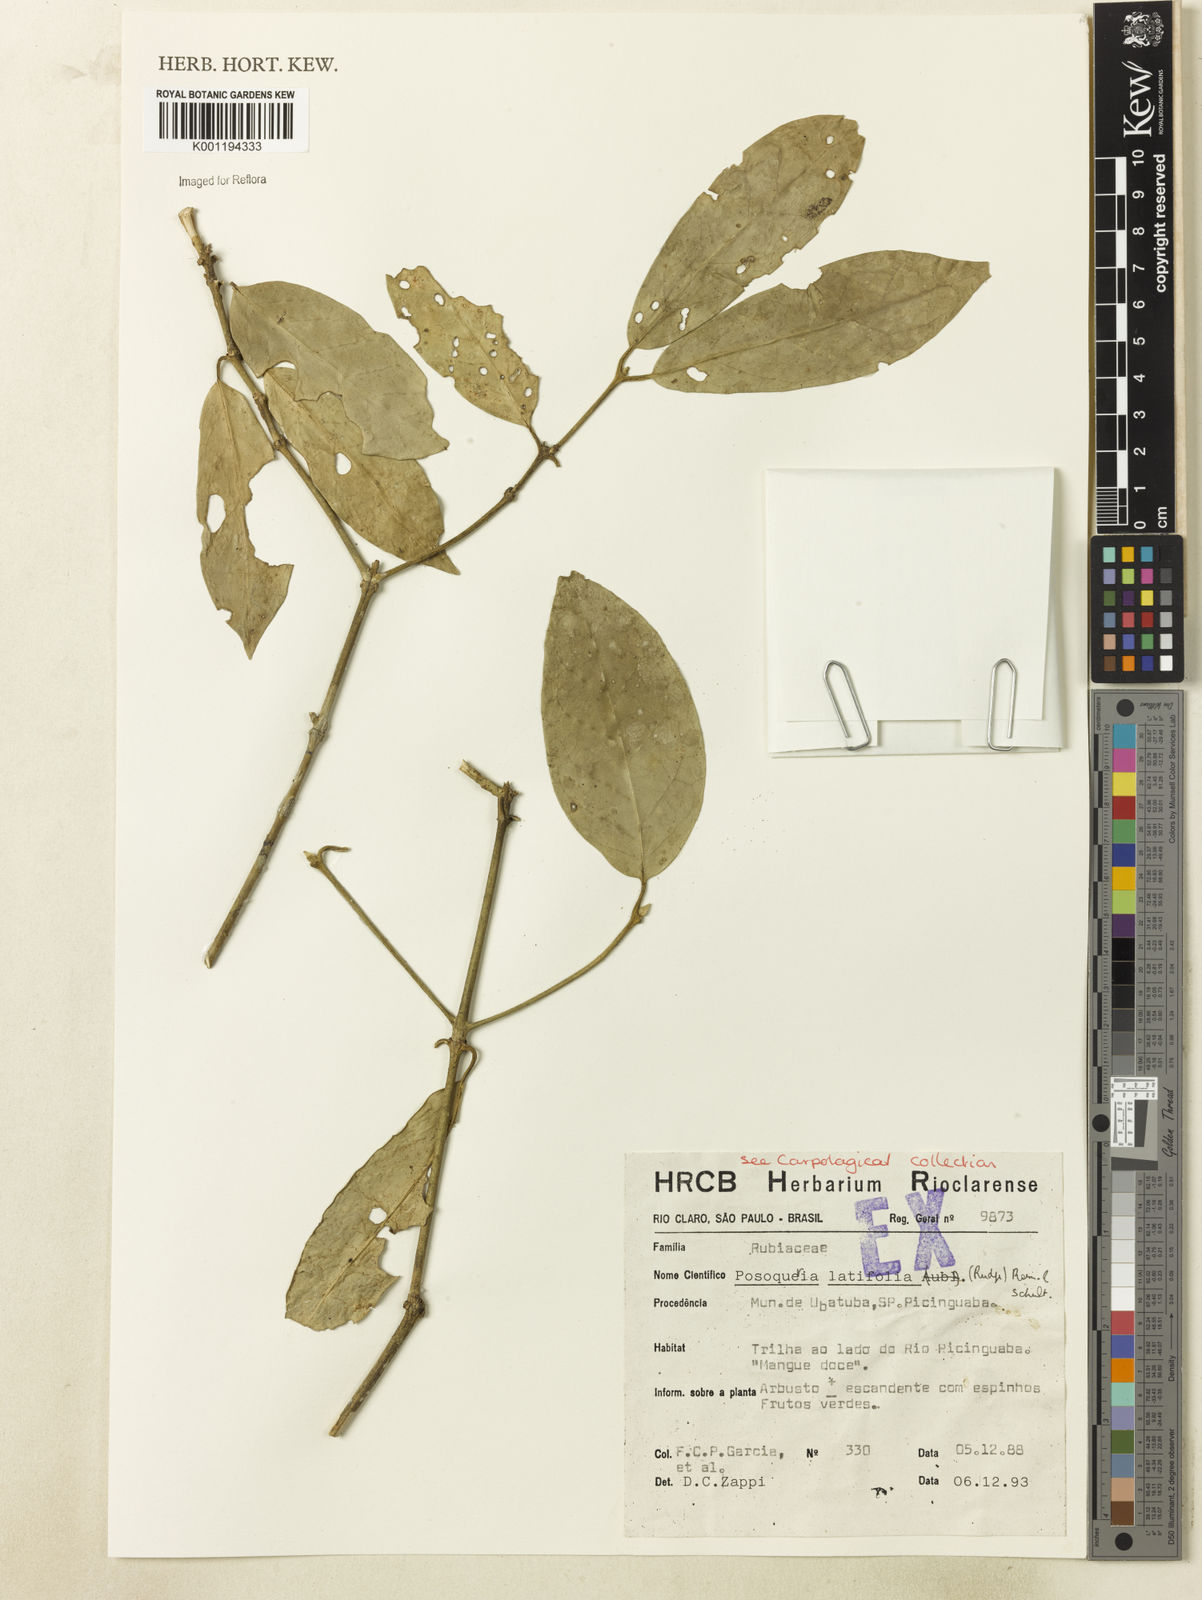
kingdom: Plantae
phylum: Tracheophyta
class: Magnoliopsida
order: Gentianales
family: Rubiaceae
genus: Posoqueria
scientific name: Posoqueria latifolia
